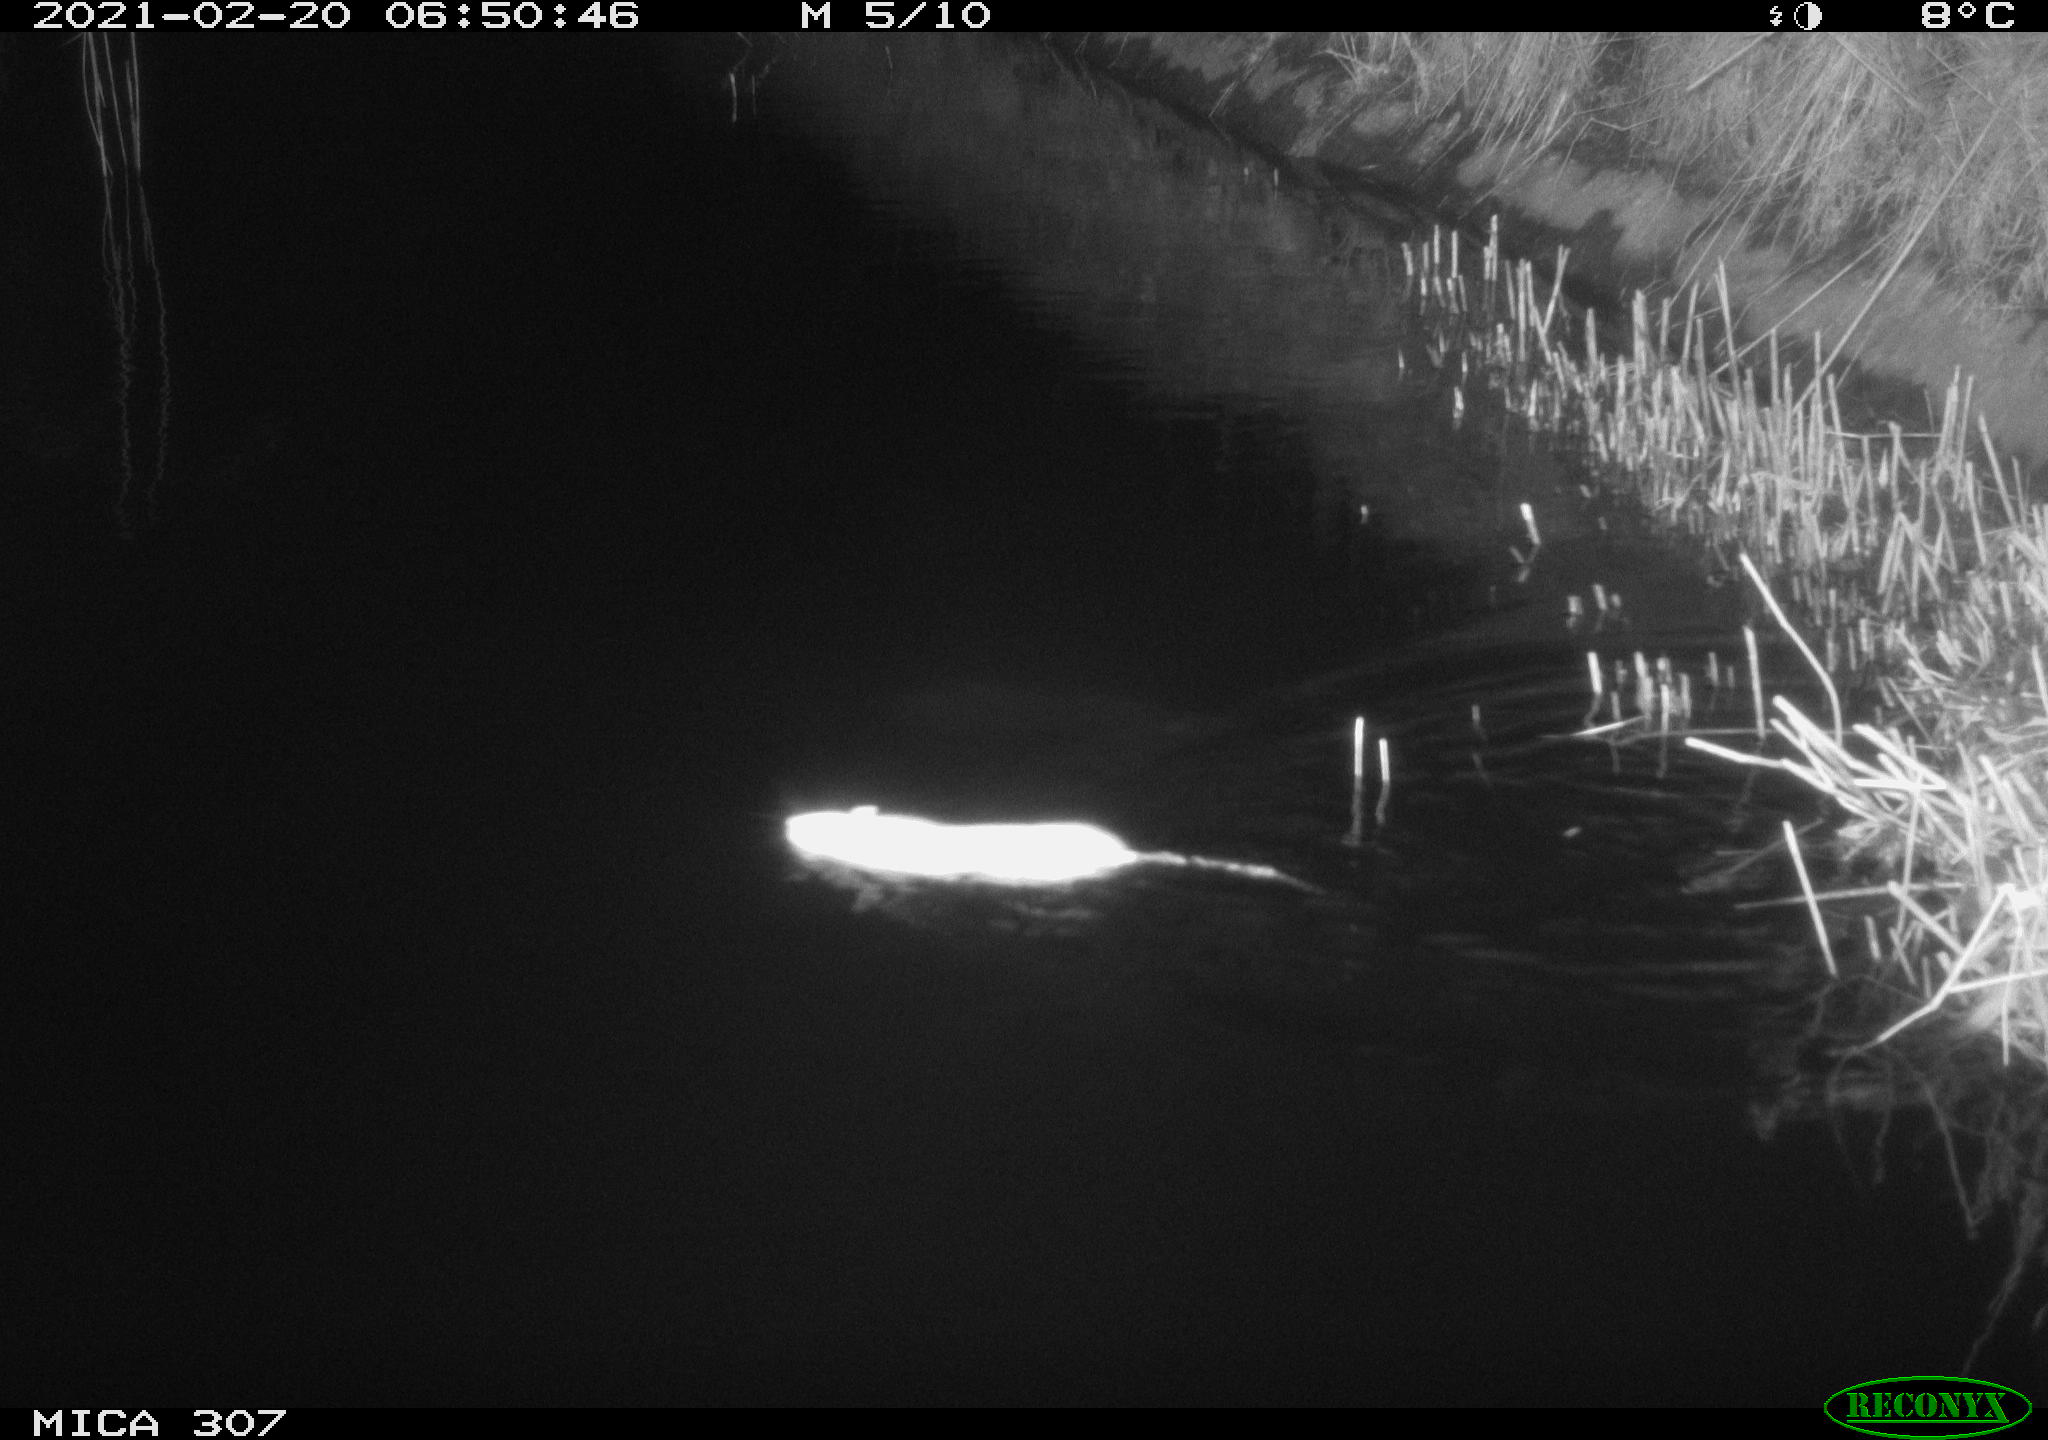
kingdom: Animalia
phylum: Chordata
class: Mammalia
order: Rodentia
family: Muridae
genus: Rattus
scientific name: Rattus norvegicus
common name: Brown rat
